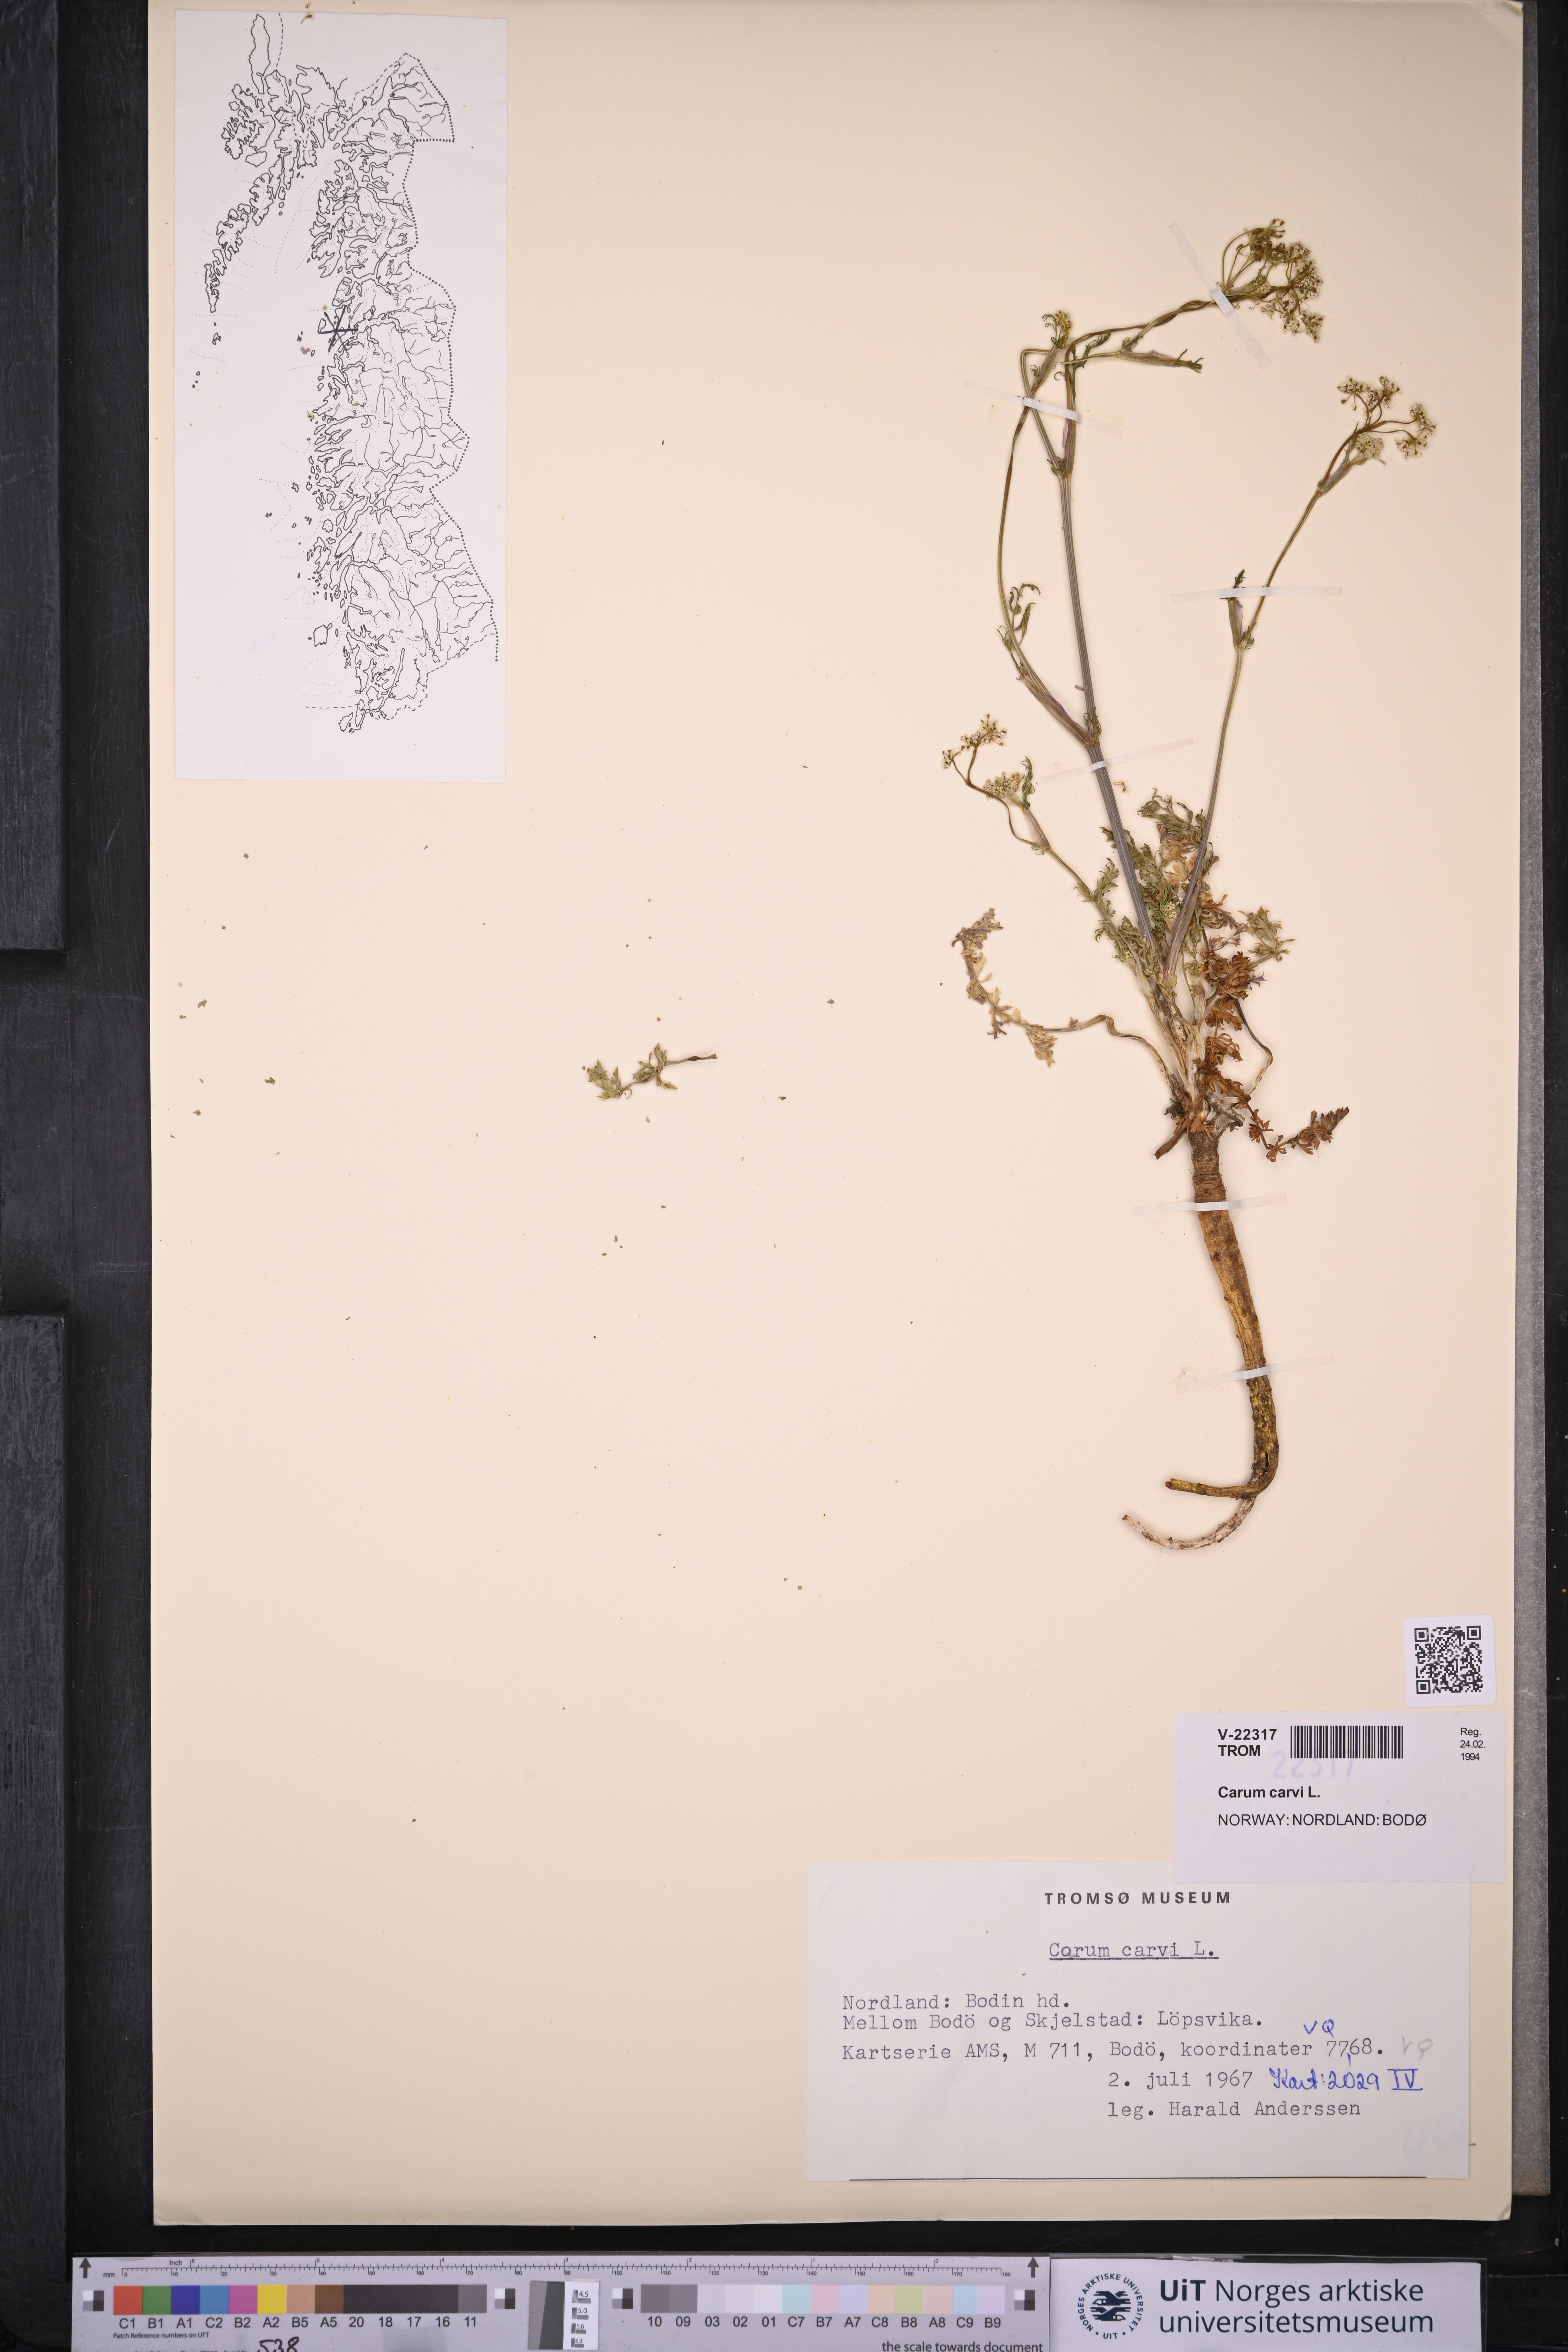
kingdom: Plantae
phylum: Tracheophyta
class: Magnoliopsida
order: Apiales
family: Apiaceae
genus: Carum
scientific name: Carum carvi
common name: Caraway
